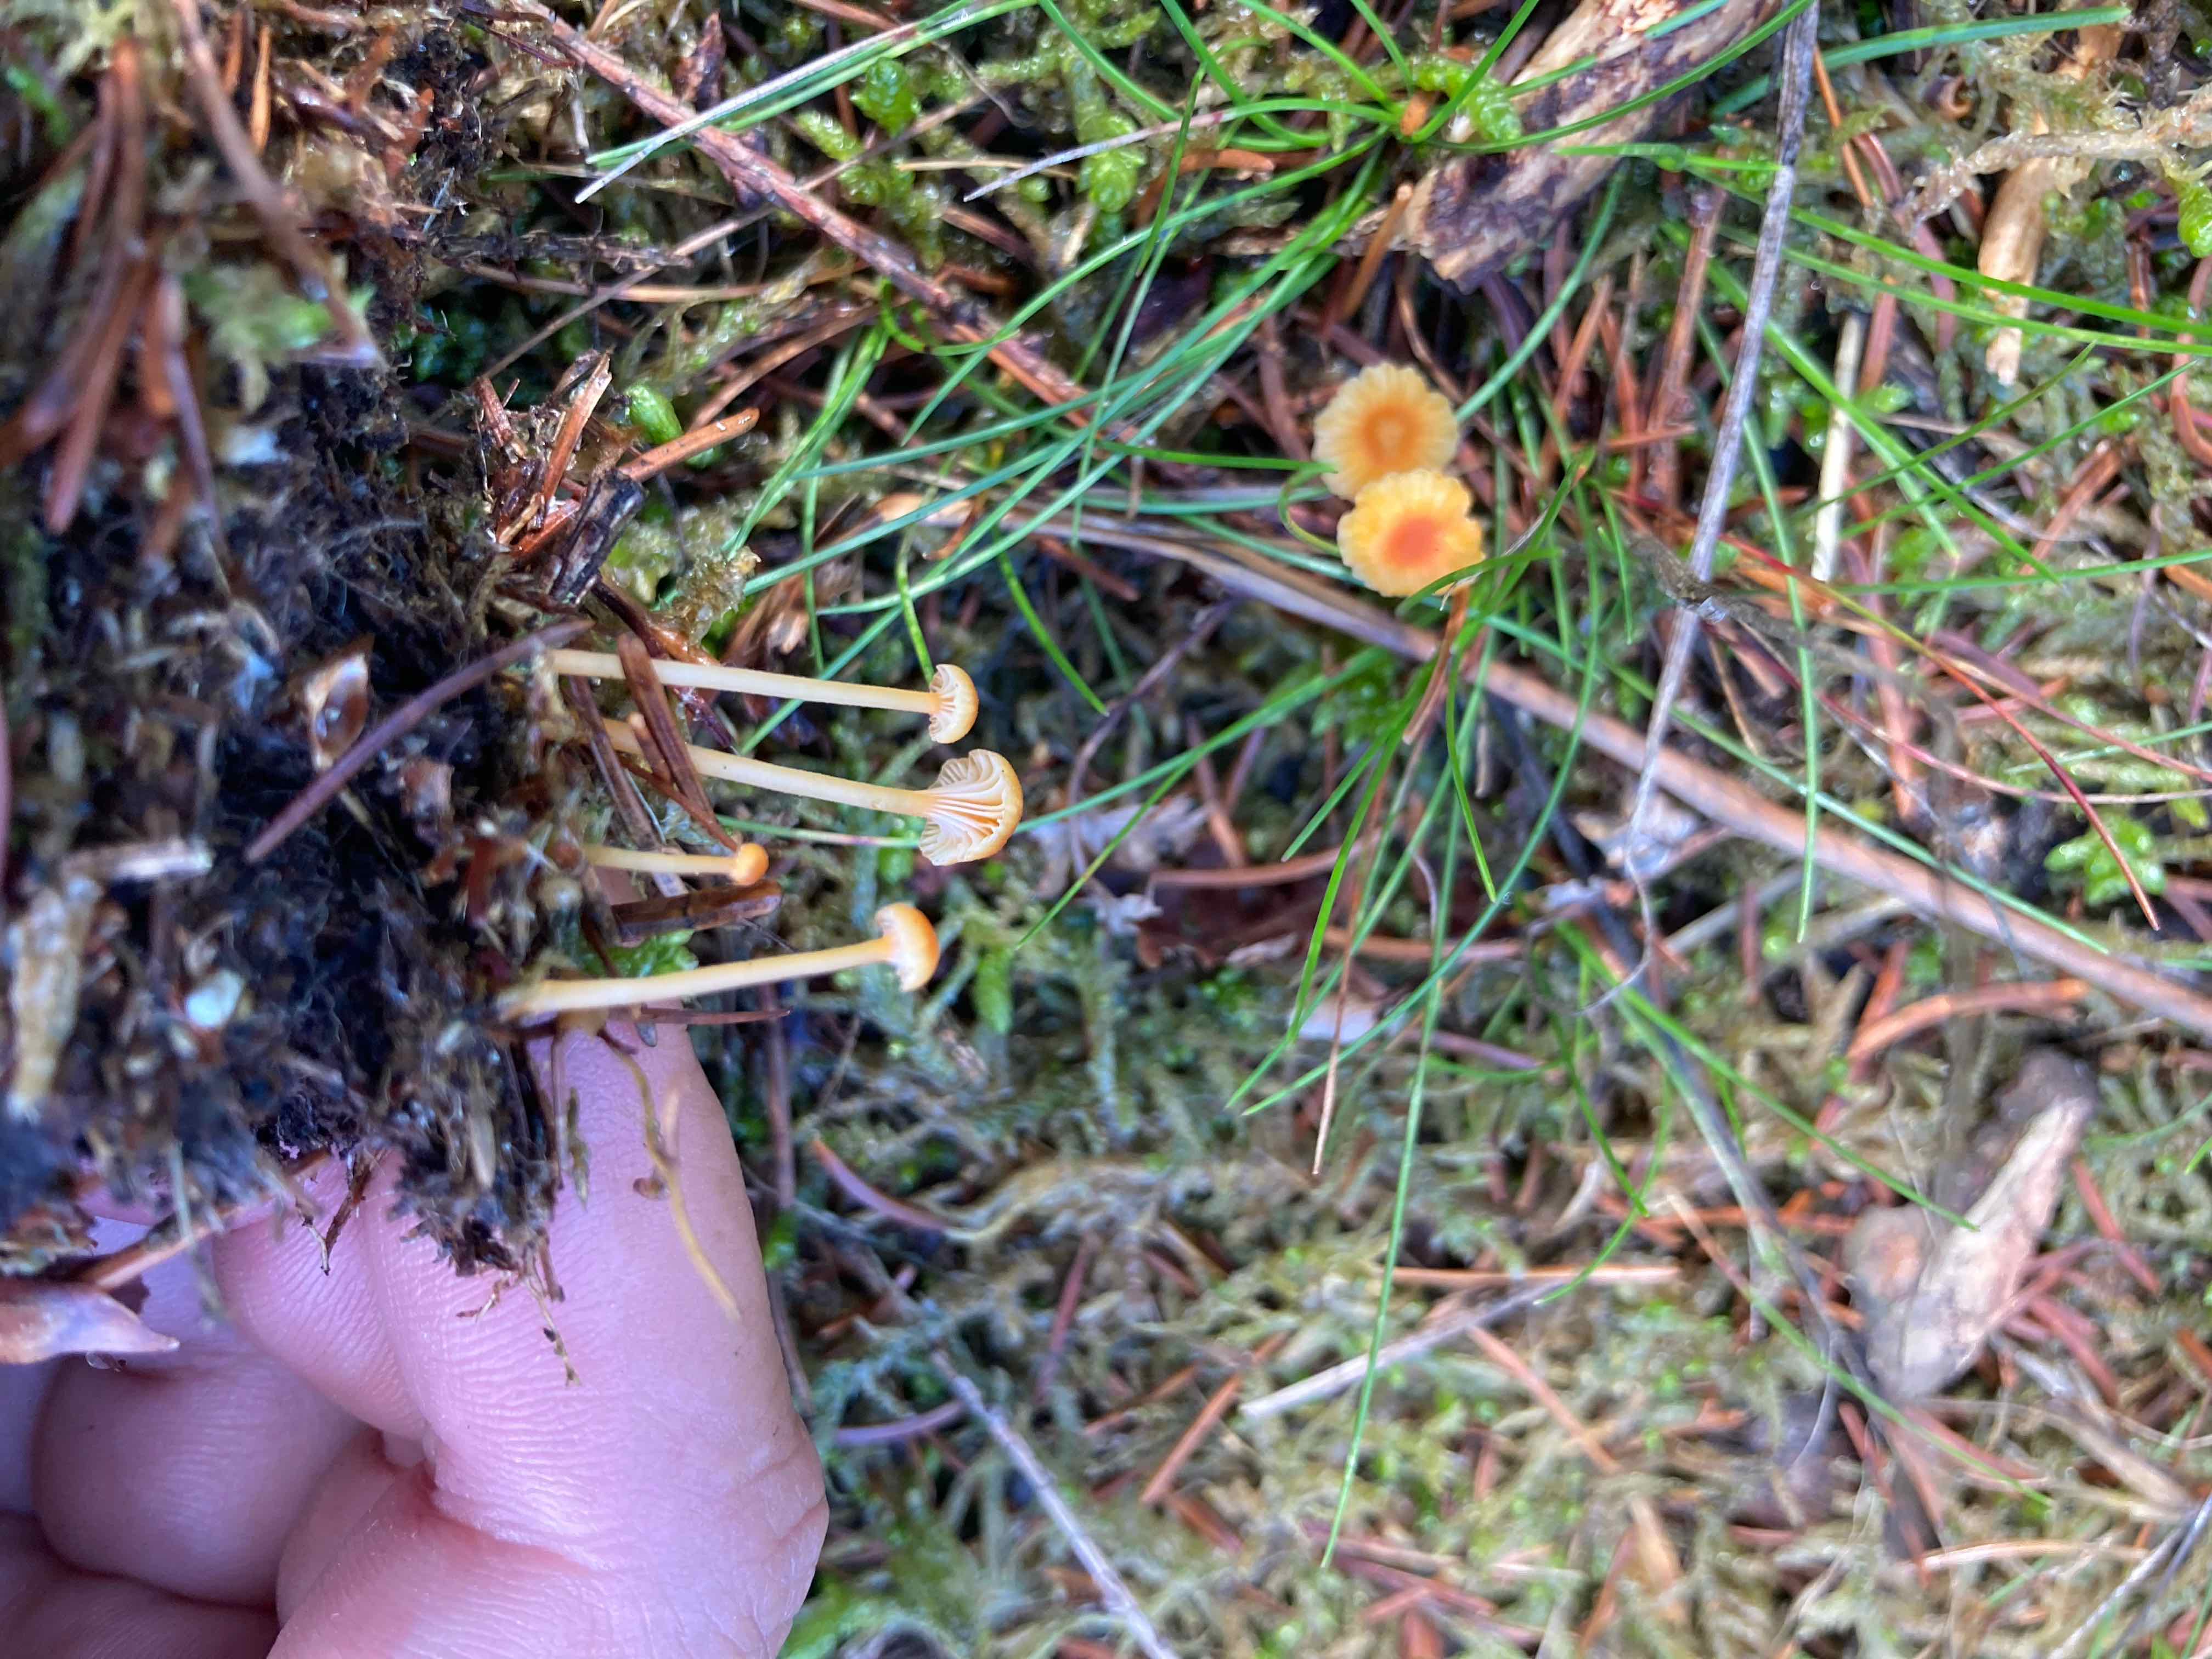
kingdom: Fungi
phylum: Basidiomycota
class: Agaricomycetes
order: Hymenochaetales
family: Rickenellaceae
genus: Rickenella
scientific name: Rickenella fibula
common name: orange mosnavlehat
